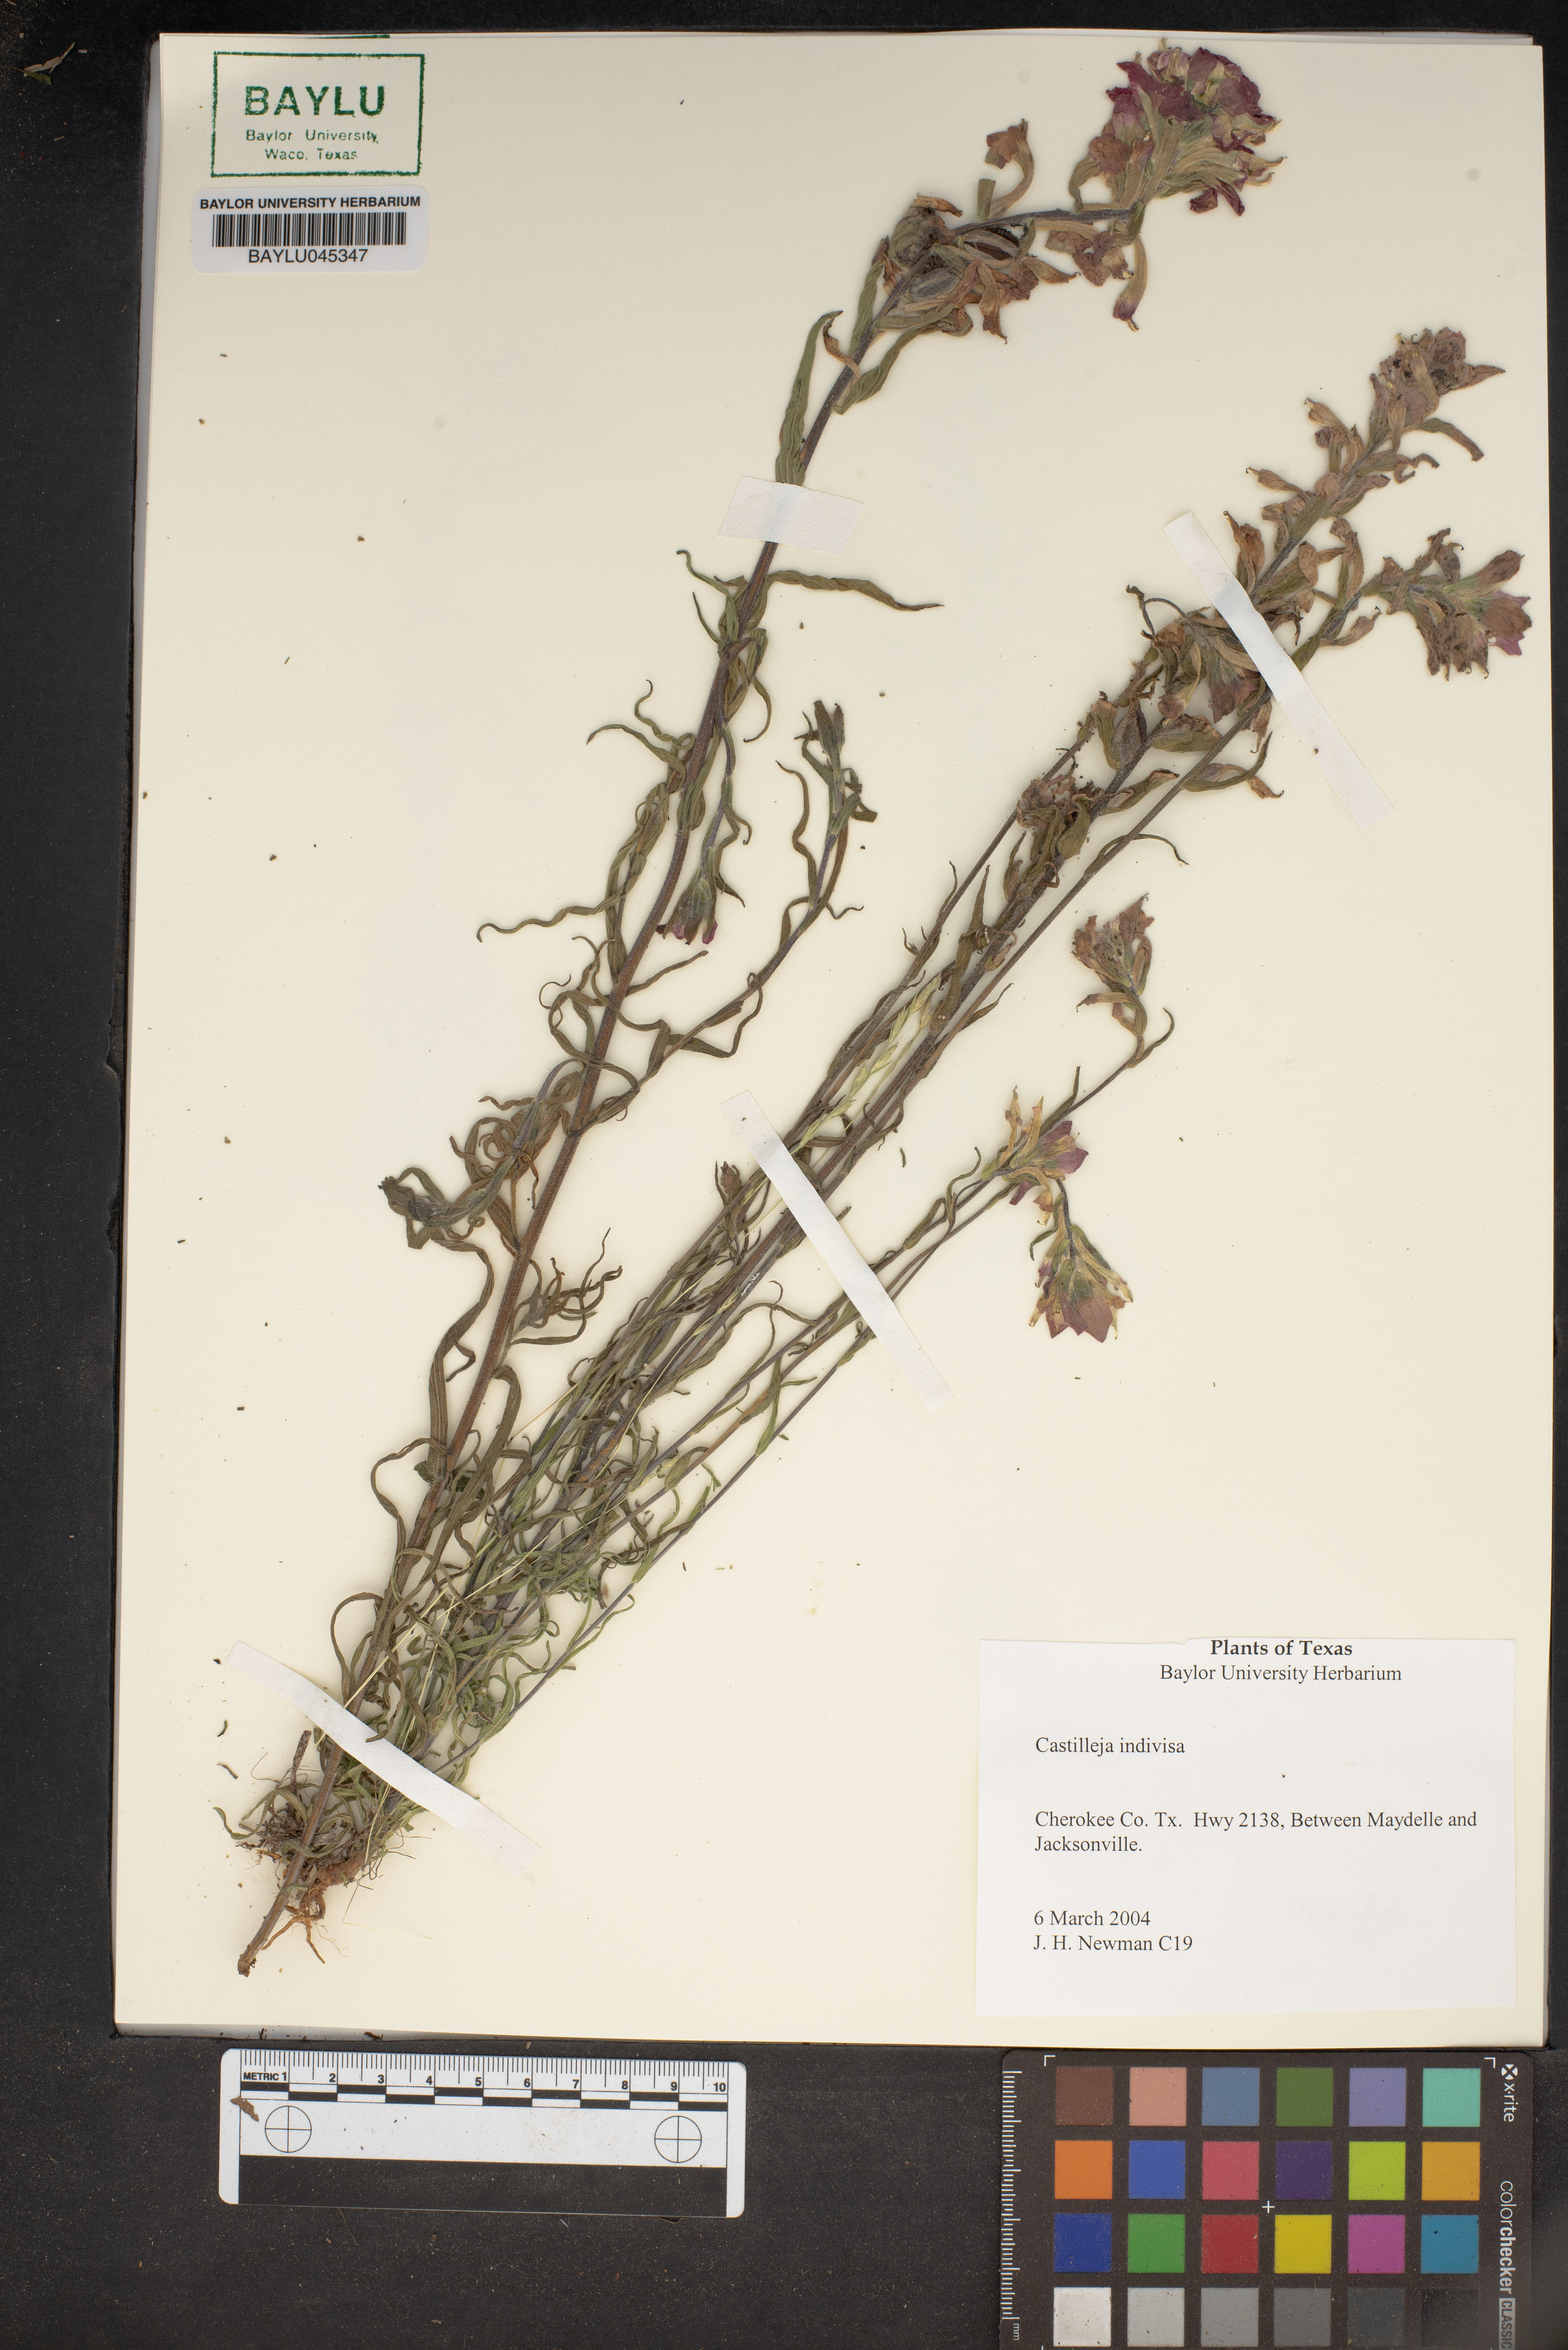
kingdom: Plantae
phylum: Tracheophyta
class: Magnoliopsida
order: Lamiales
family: Orobanchaceae
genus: Castilleja
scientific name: Castilleja indivisa
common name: Texas paintbrush
